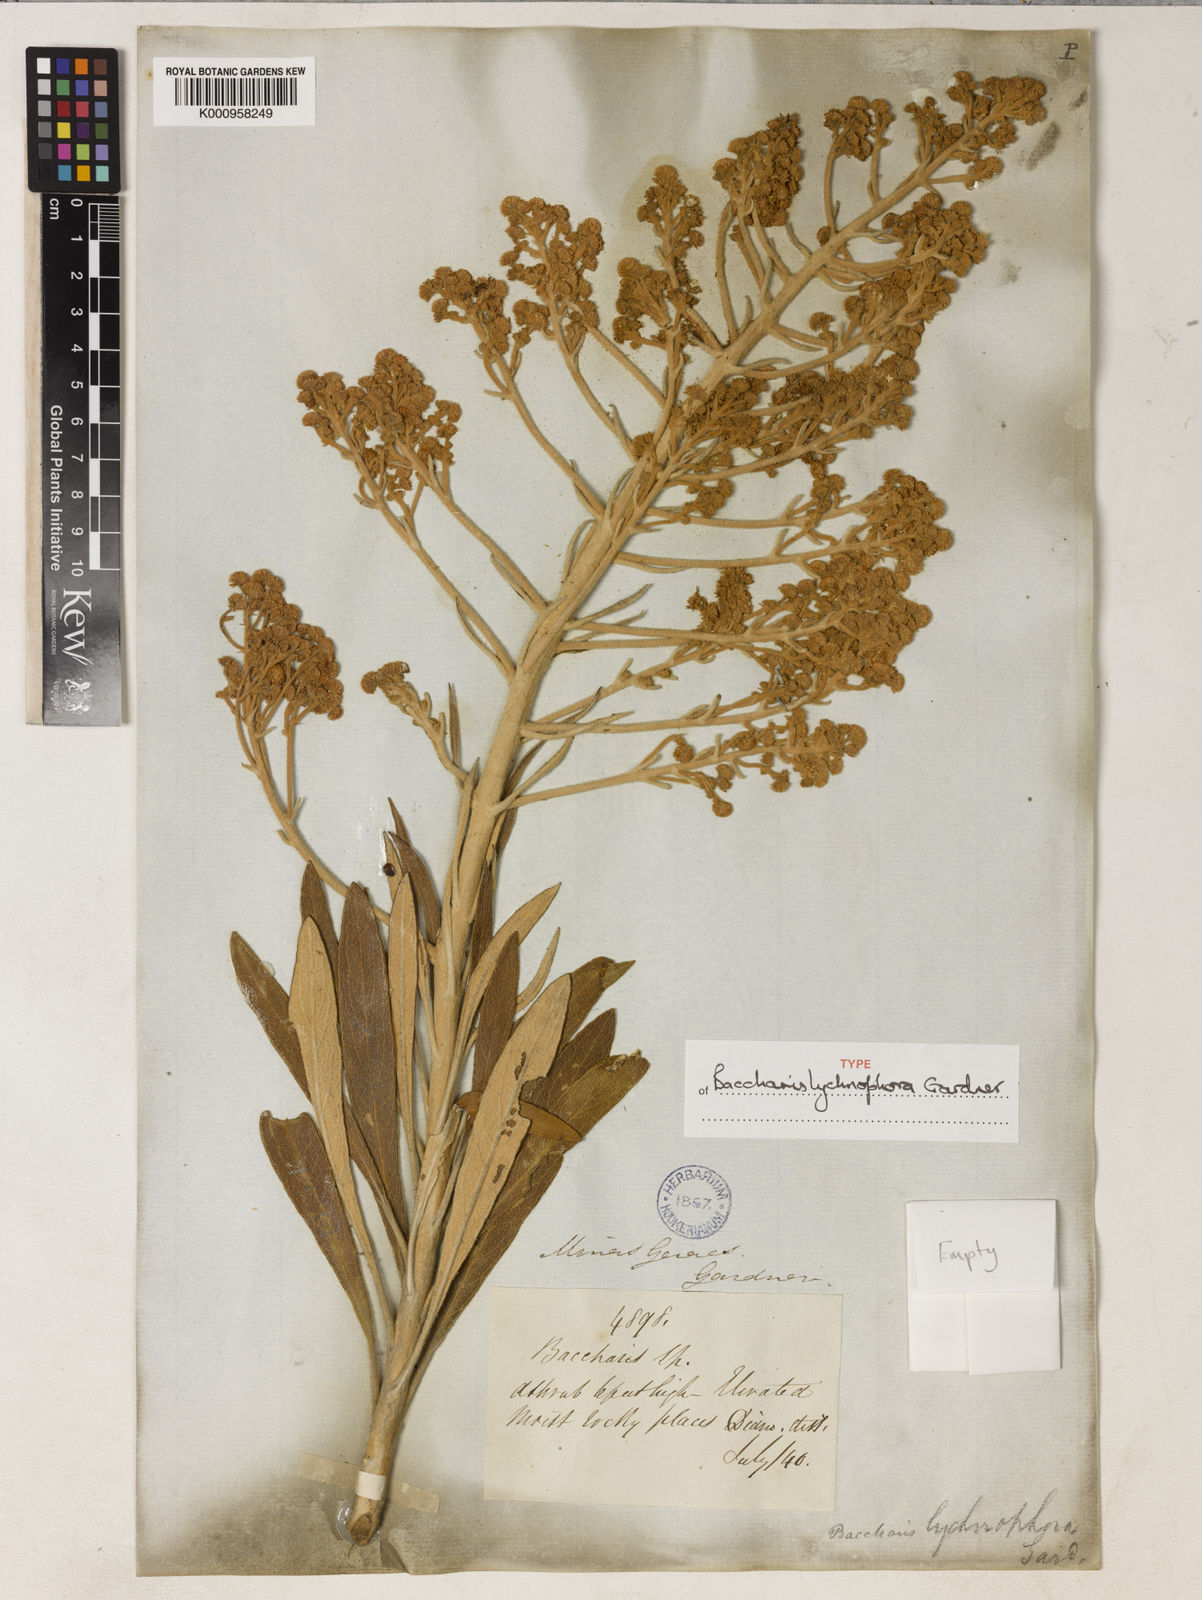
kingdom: Plantae
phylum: Tracheophyta
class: Magnoliopsida
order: Asterales
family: Asteraceae
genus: Baccharis
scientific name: Baccharis lychnophora
